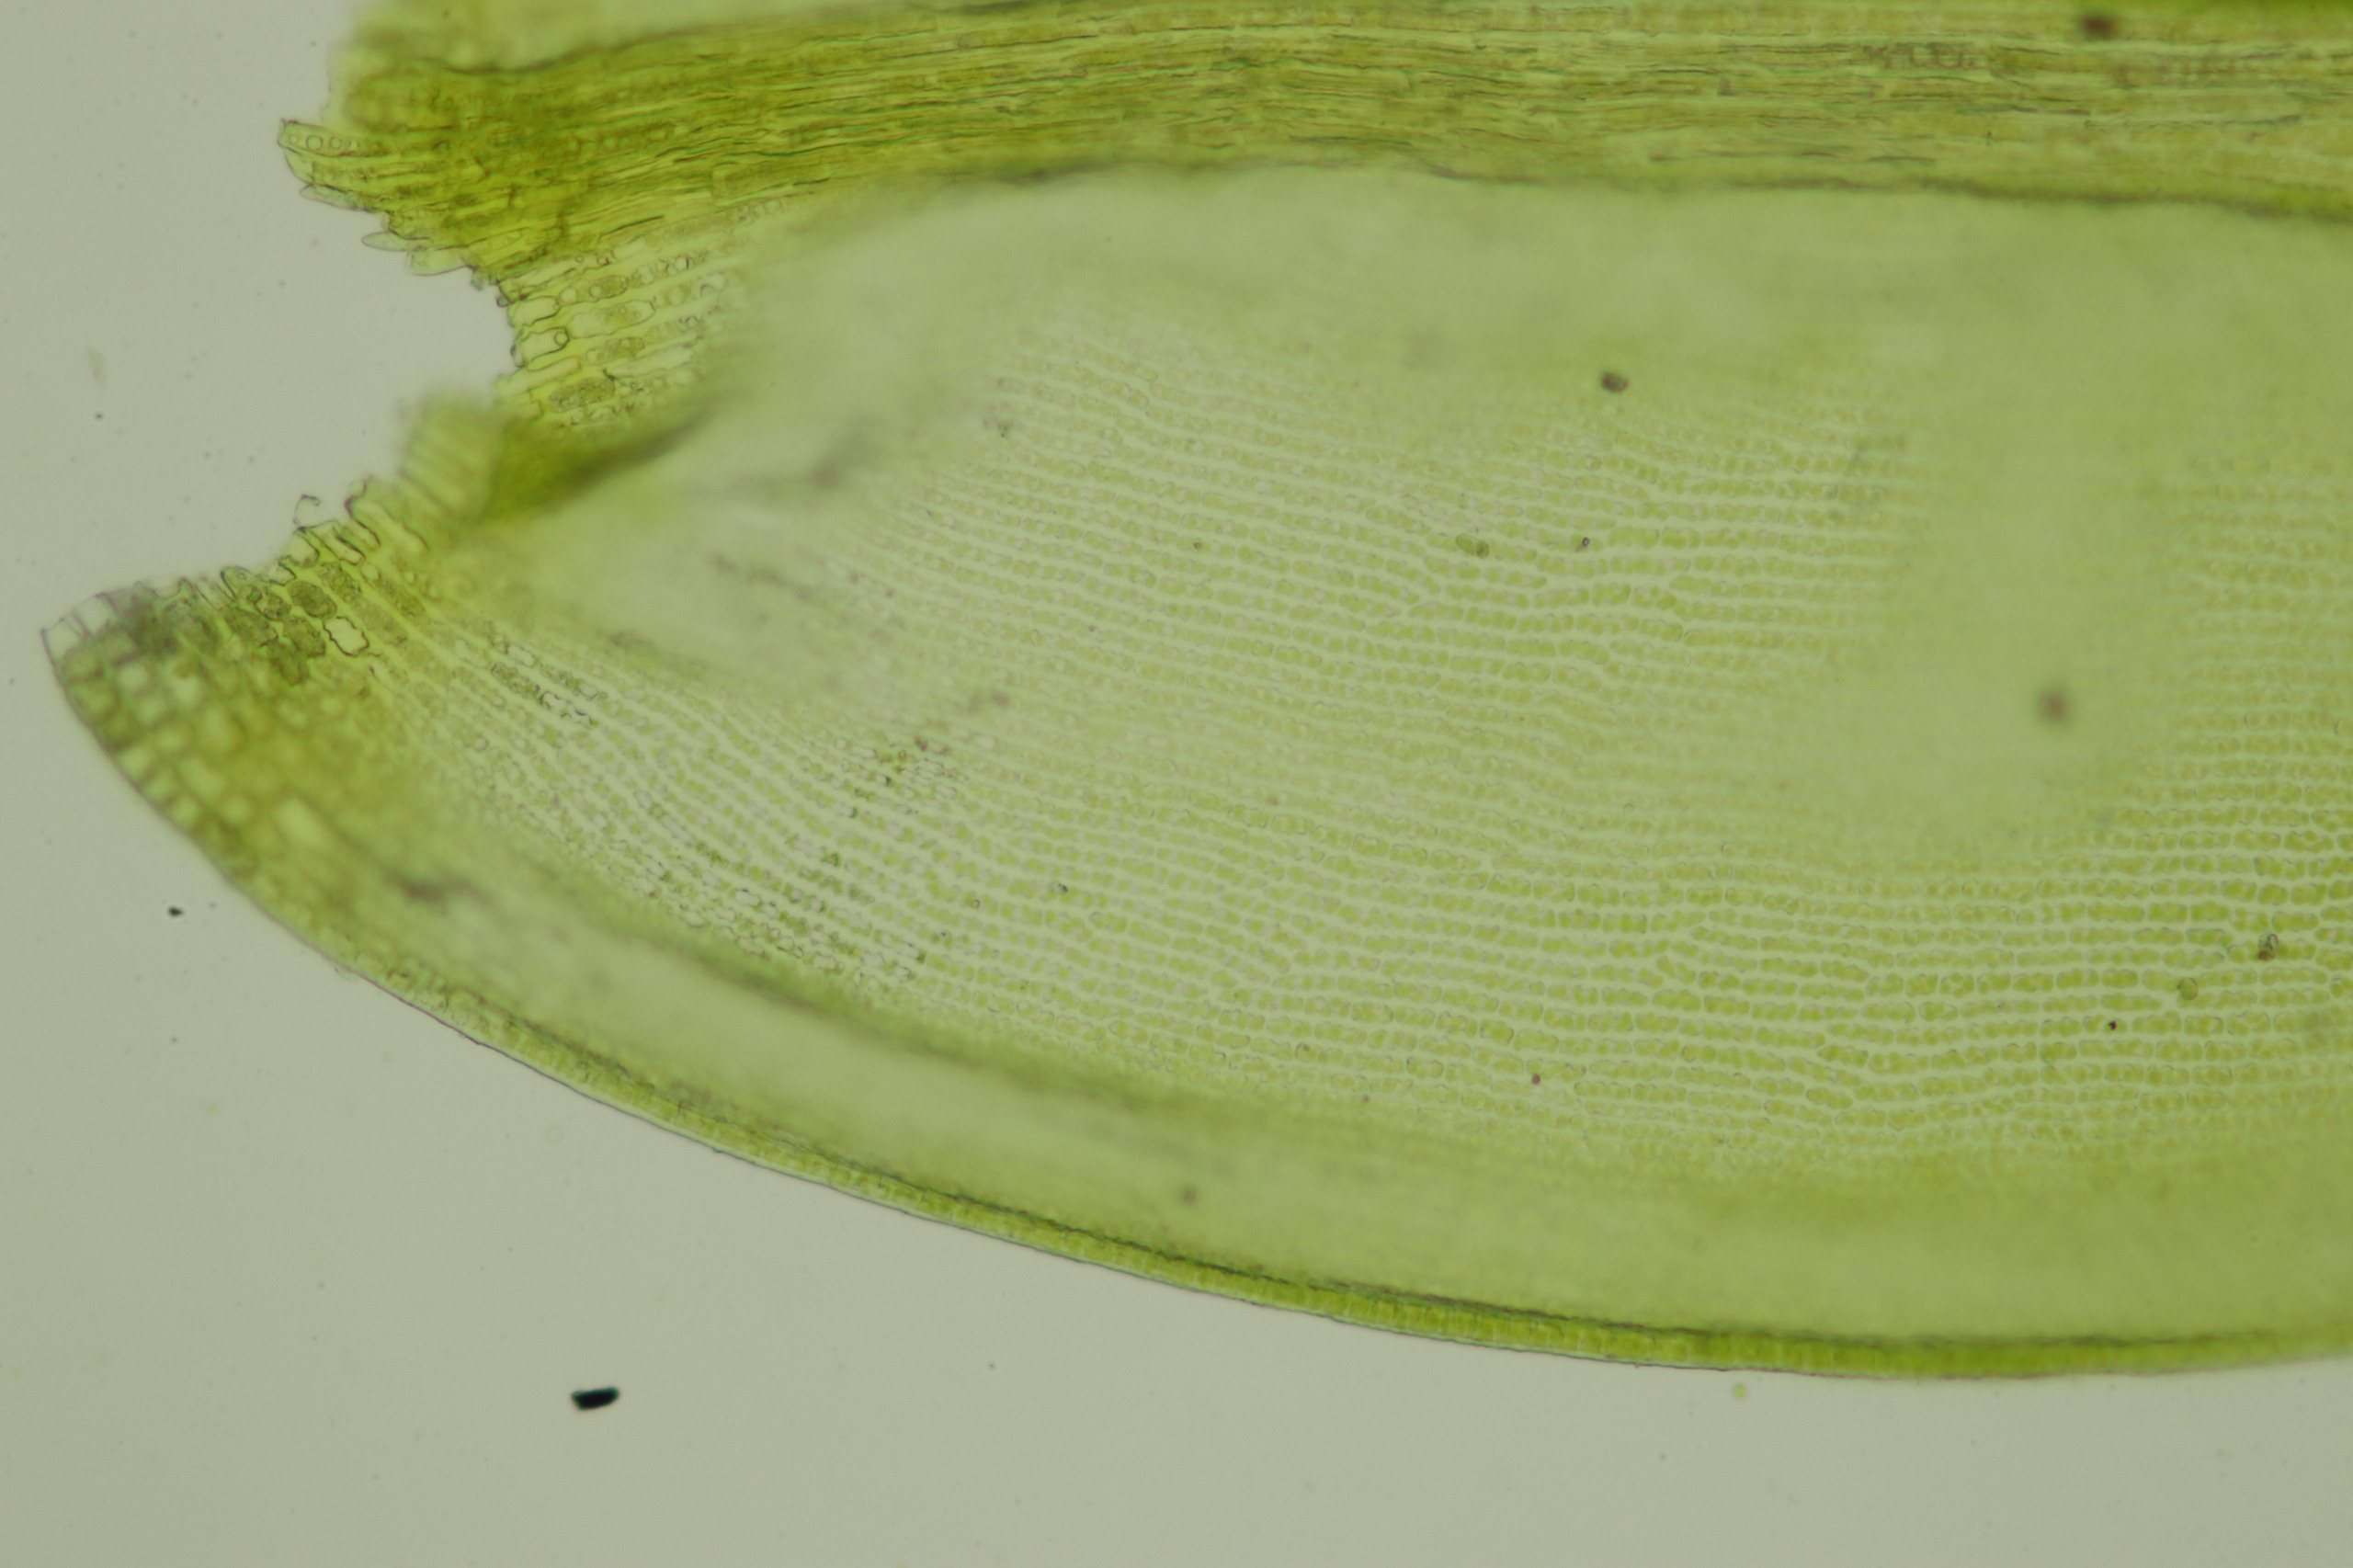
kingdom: Plantae
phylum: Bryophyta
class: Bryopsida
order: Grimmiales
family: Grimmiaceae
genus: Codriophorus
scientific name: Codriophorus acicularis
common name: Butbladet børstemos
